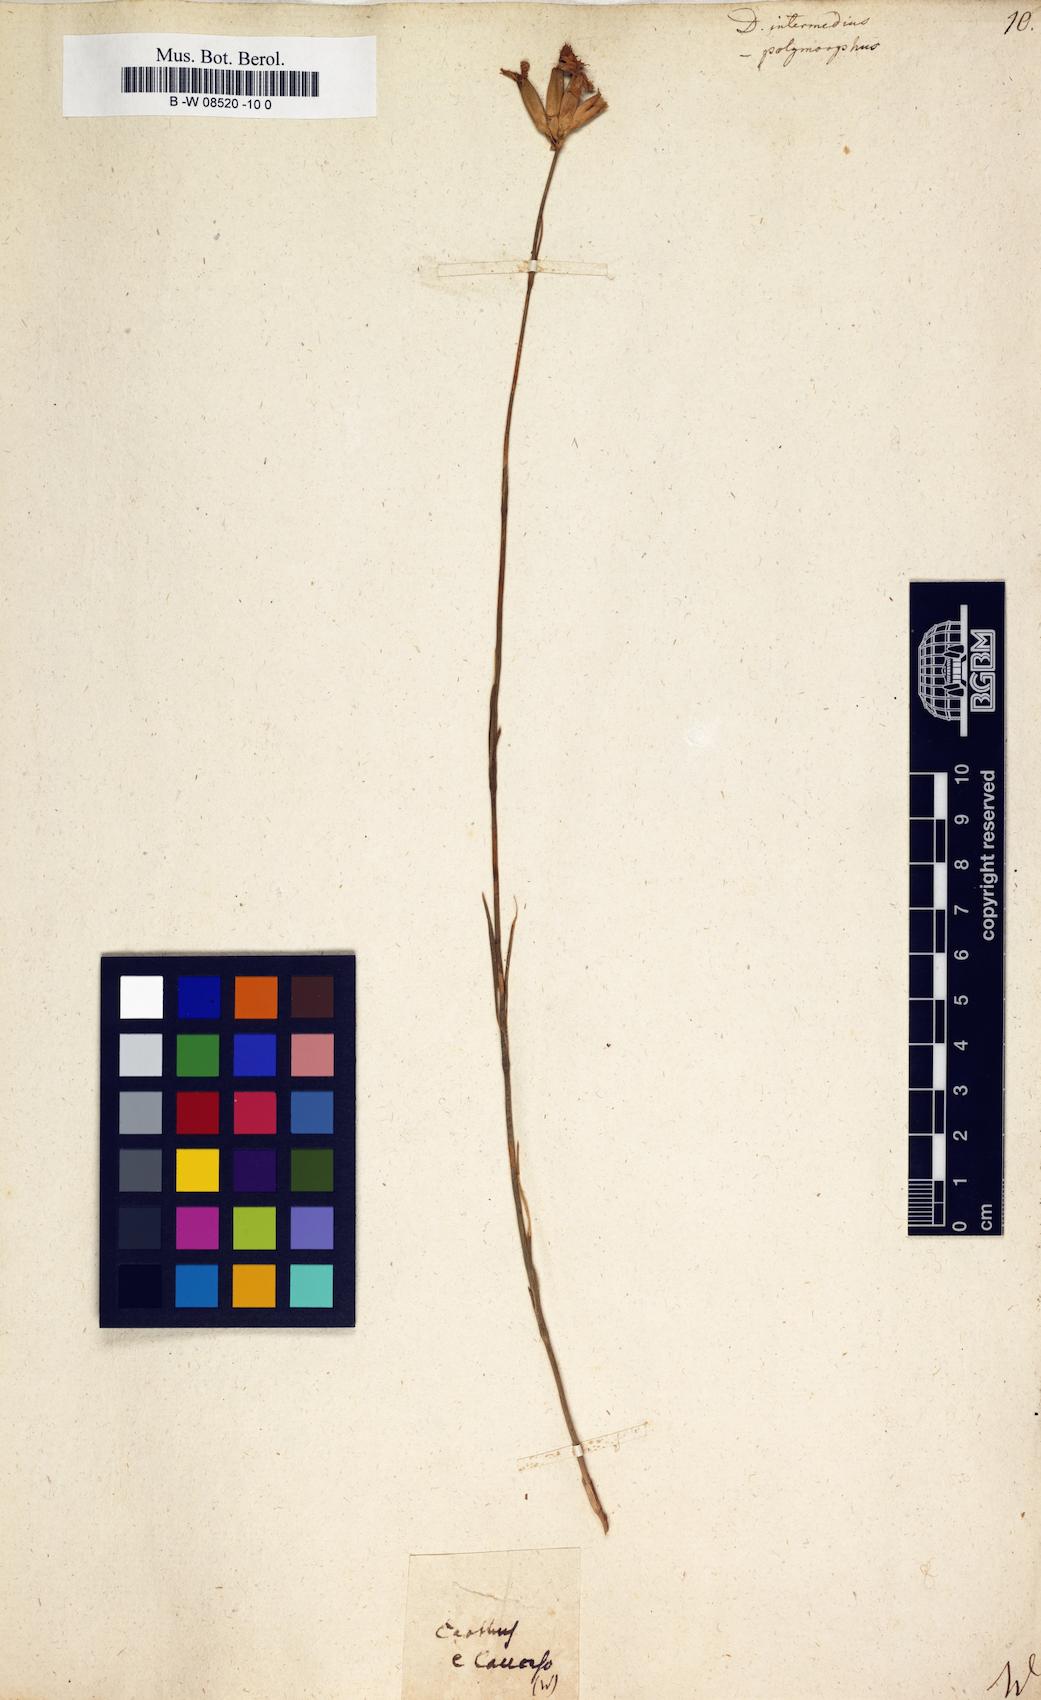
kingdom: Plantae
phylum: Tracheophyta
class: Magnoliopsida
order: Caryophyllales
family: Caryophyllaceae
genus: Dianthus
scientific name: Dianthus
